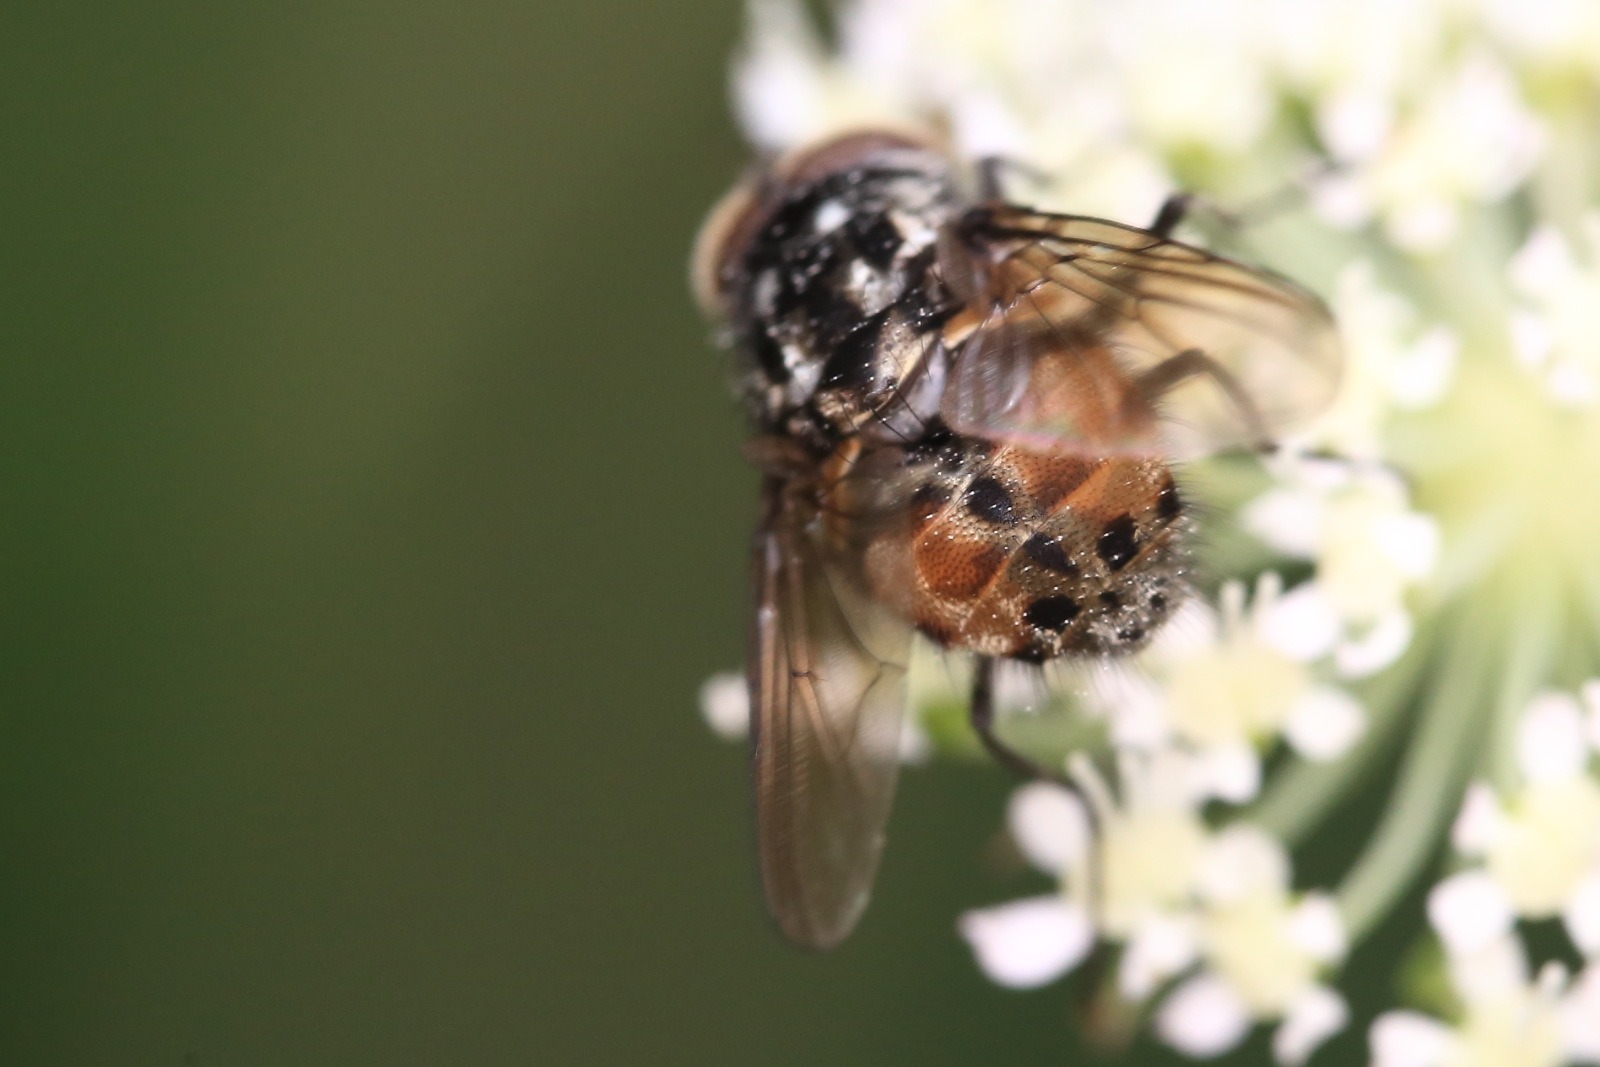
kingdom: Animalia
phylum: Arthropoda
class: Insecta
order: Diptera
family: Muscidae
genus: Graphomya
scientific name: Graphomya maculata
